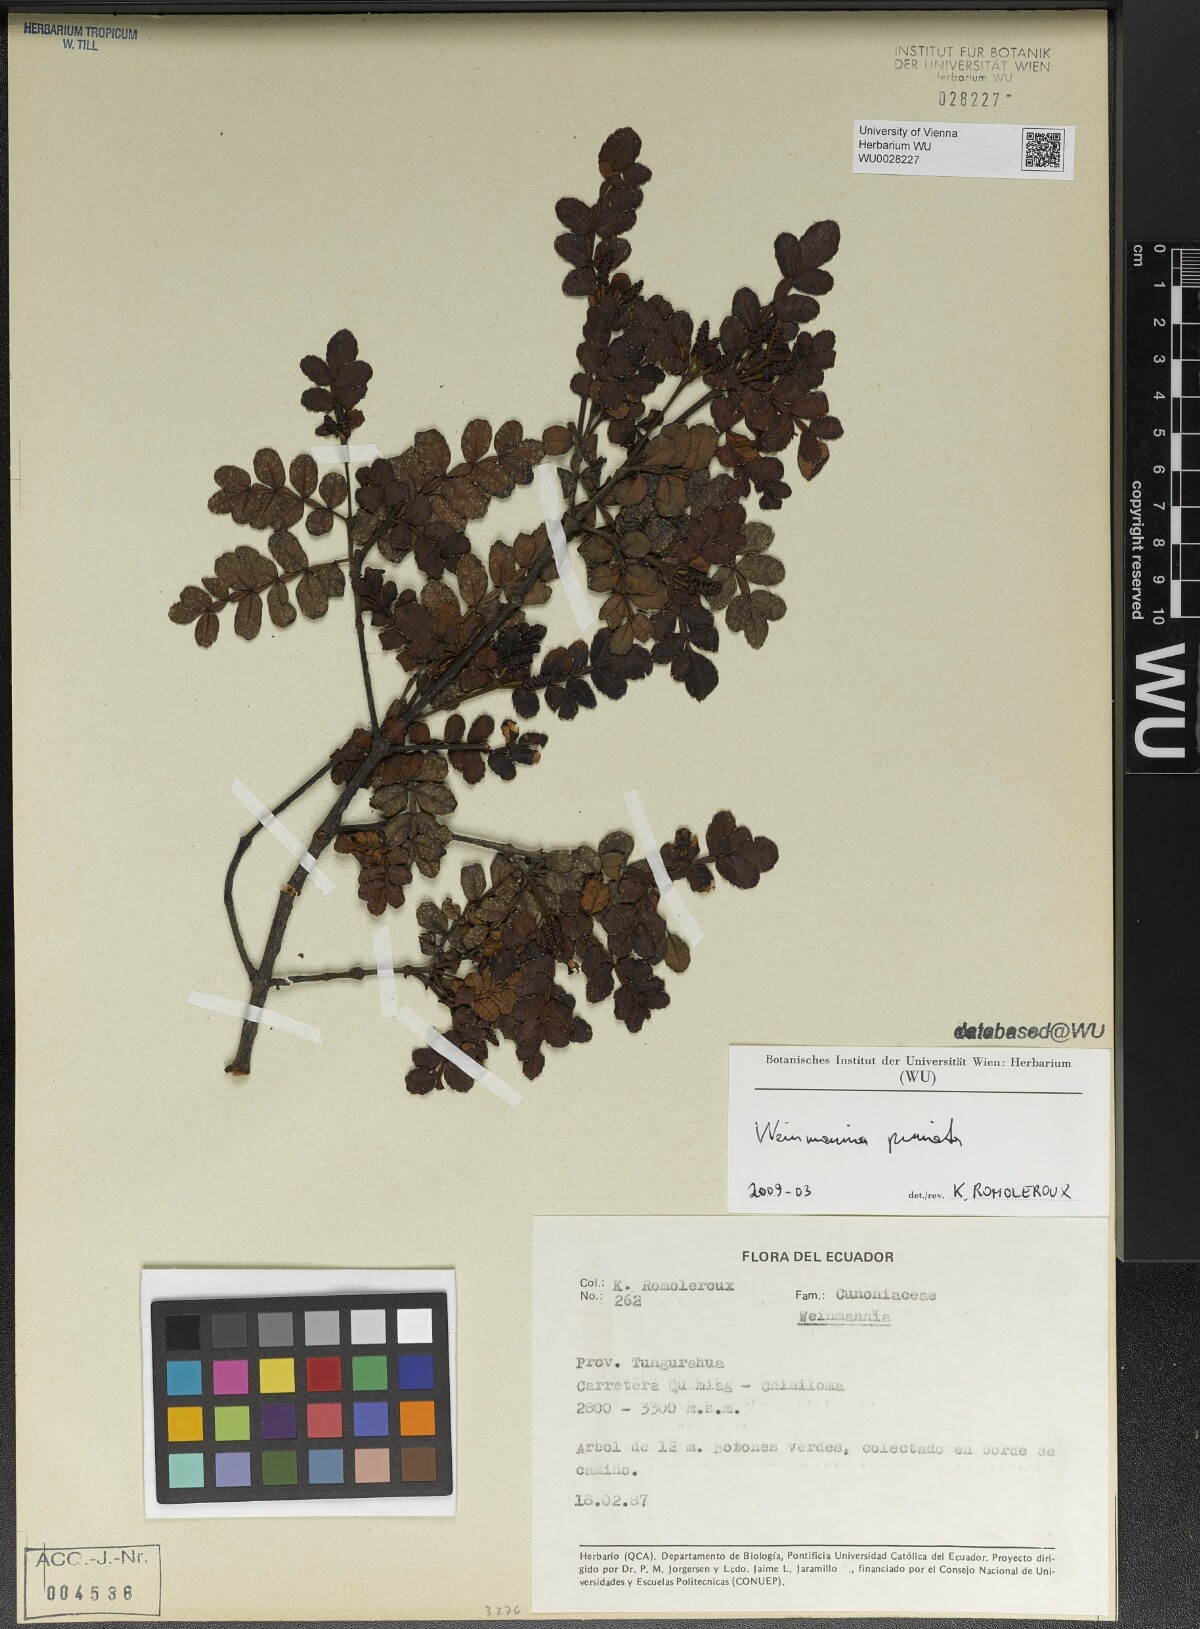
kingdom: Plantae
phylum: Tracheophyta
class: Magnoliopsida
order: Oxalidales
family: Cunoniaceae
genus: Weinmannia
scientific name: Weinmannia pinnata
